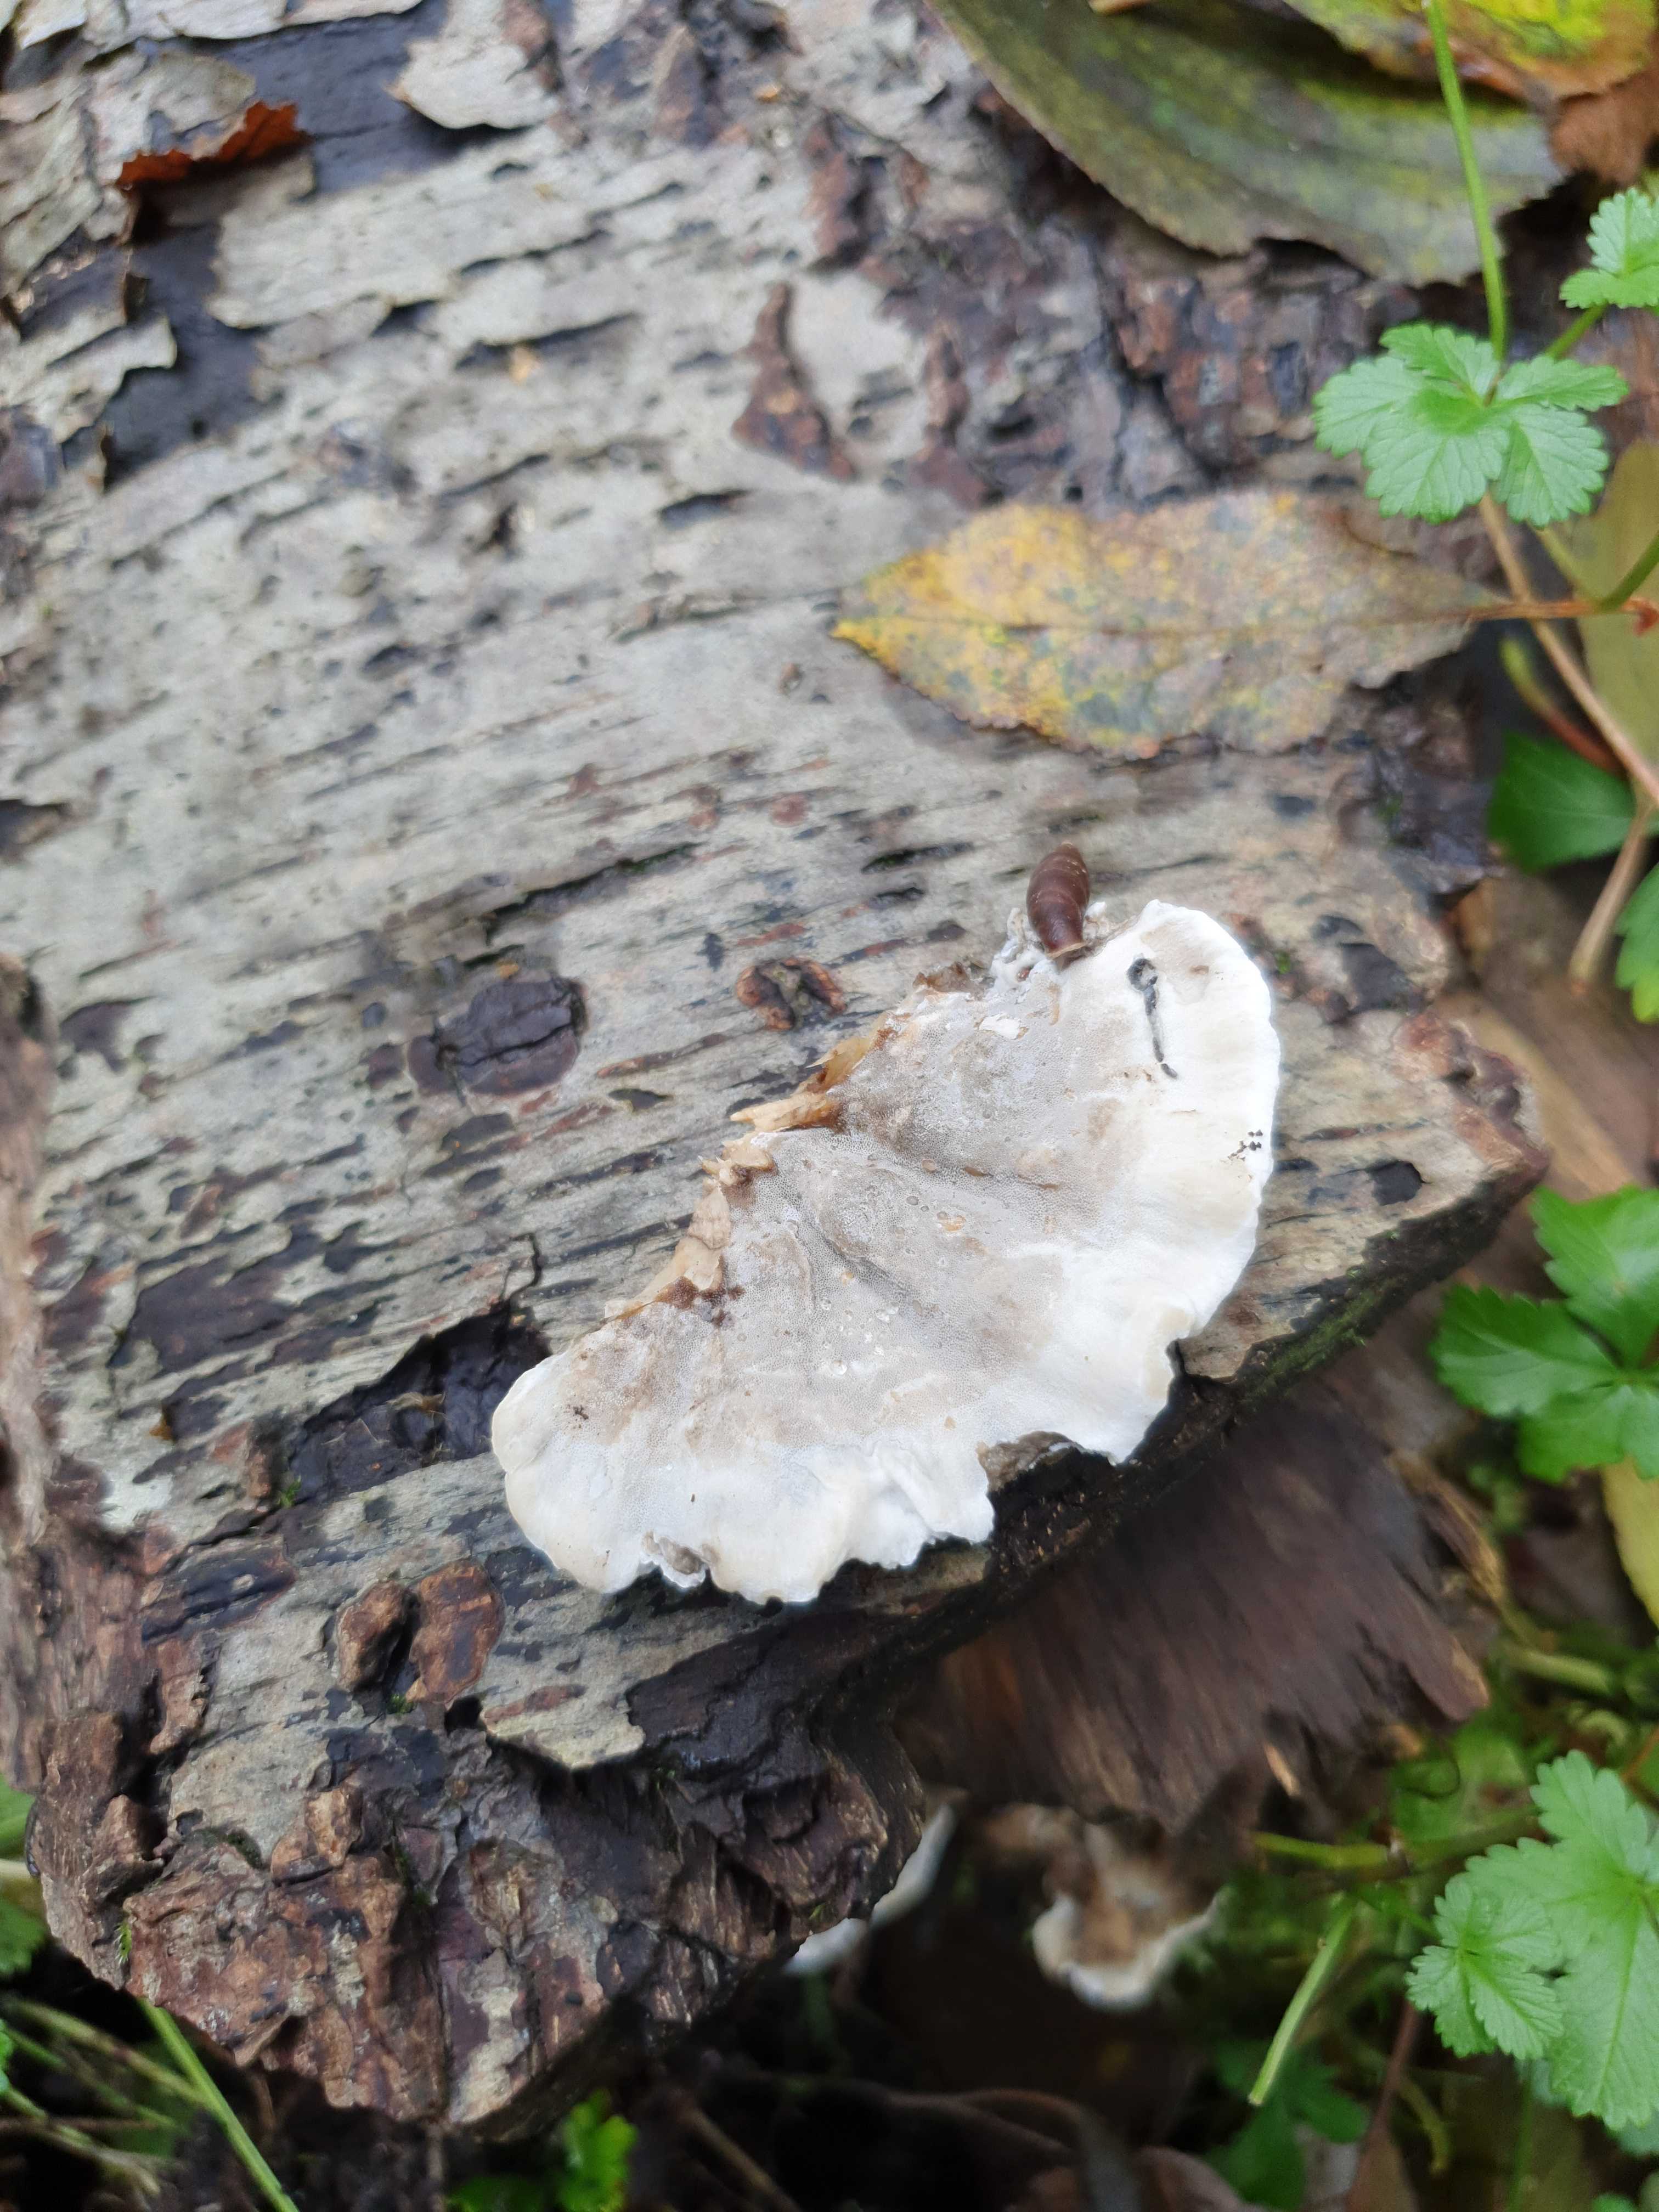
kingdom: Fungi
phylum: Basidiomycota
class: Agaricomycetes
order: Polyporales
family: Phanerochaetaceae
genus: Bjerkandera
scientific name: Bjerkandera adusta
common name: sveden sodporesvamp
